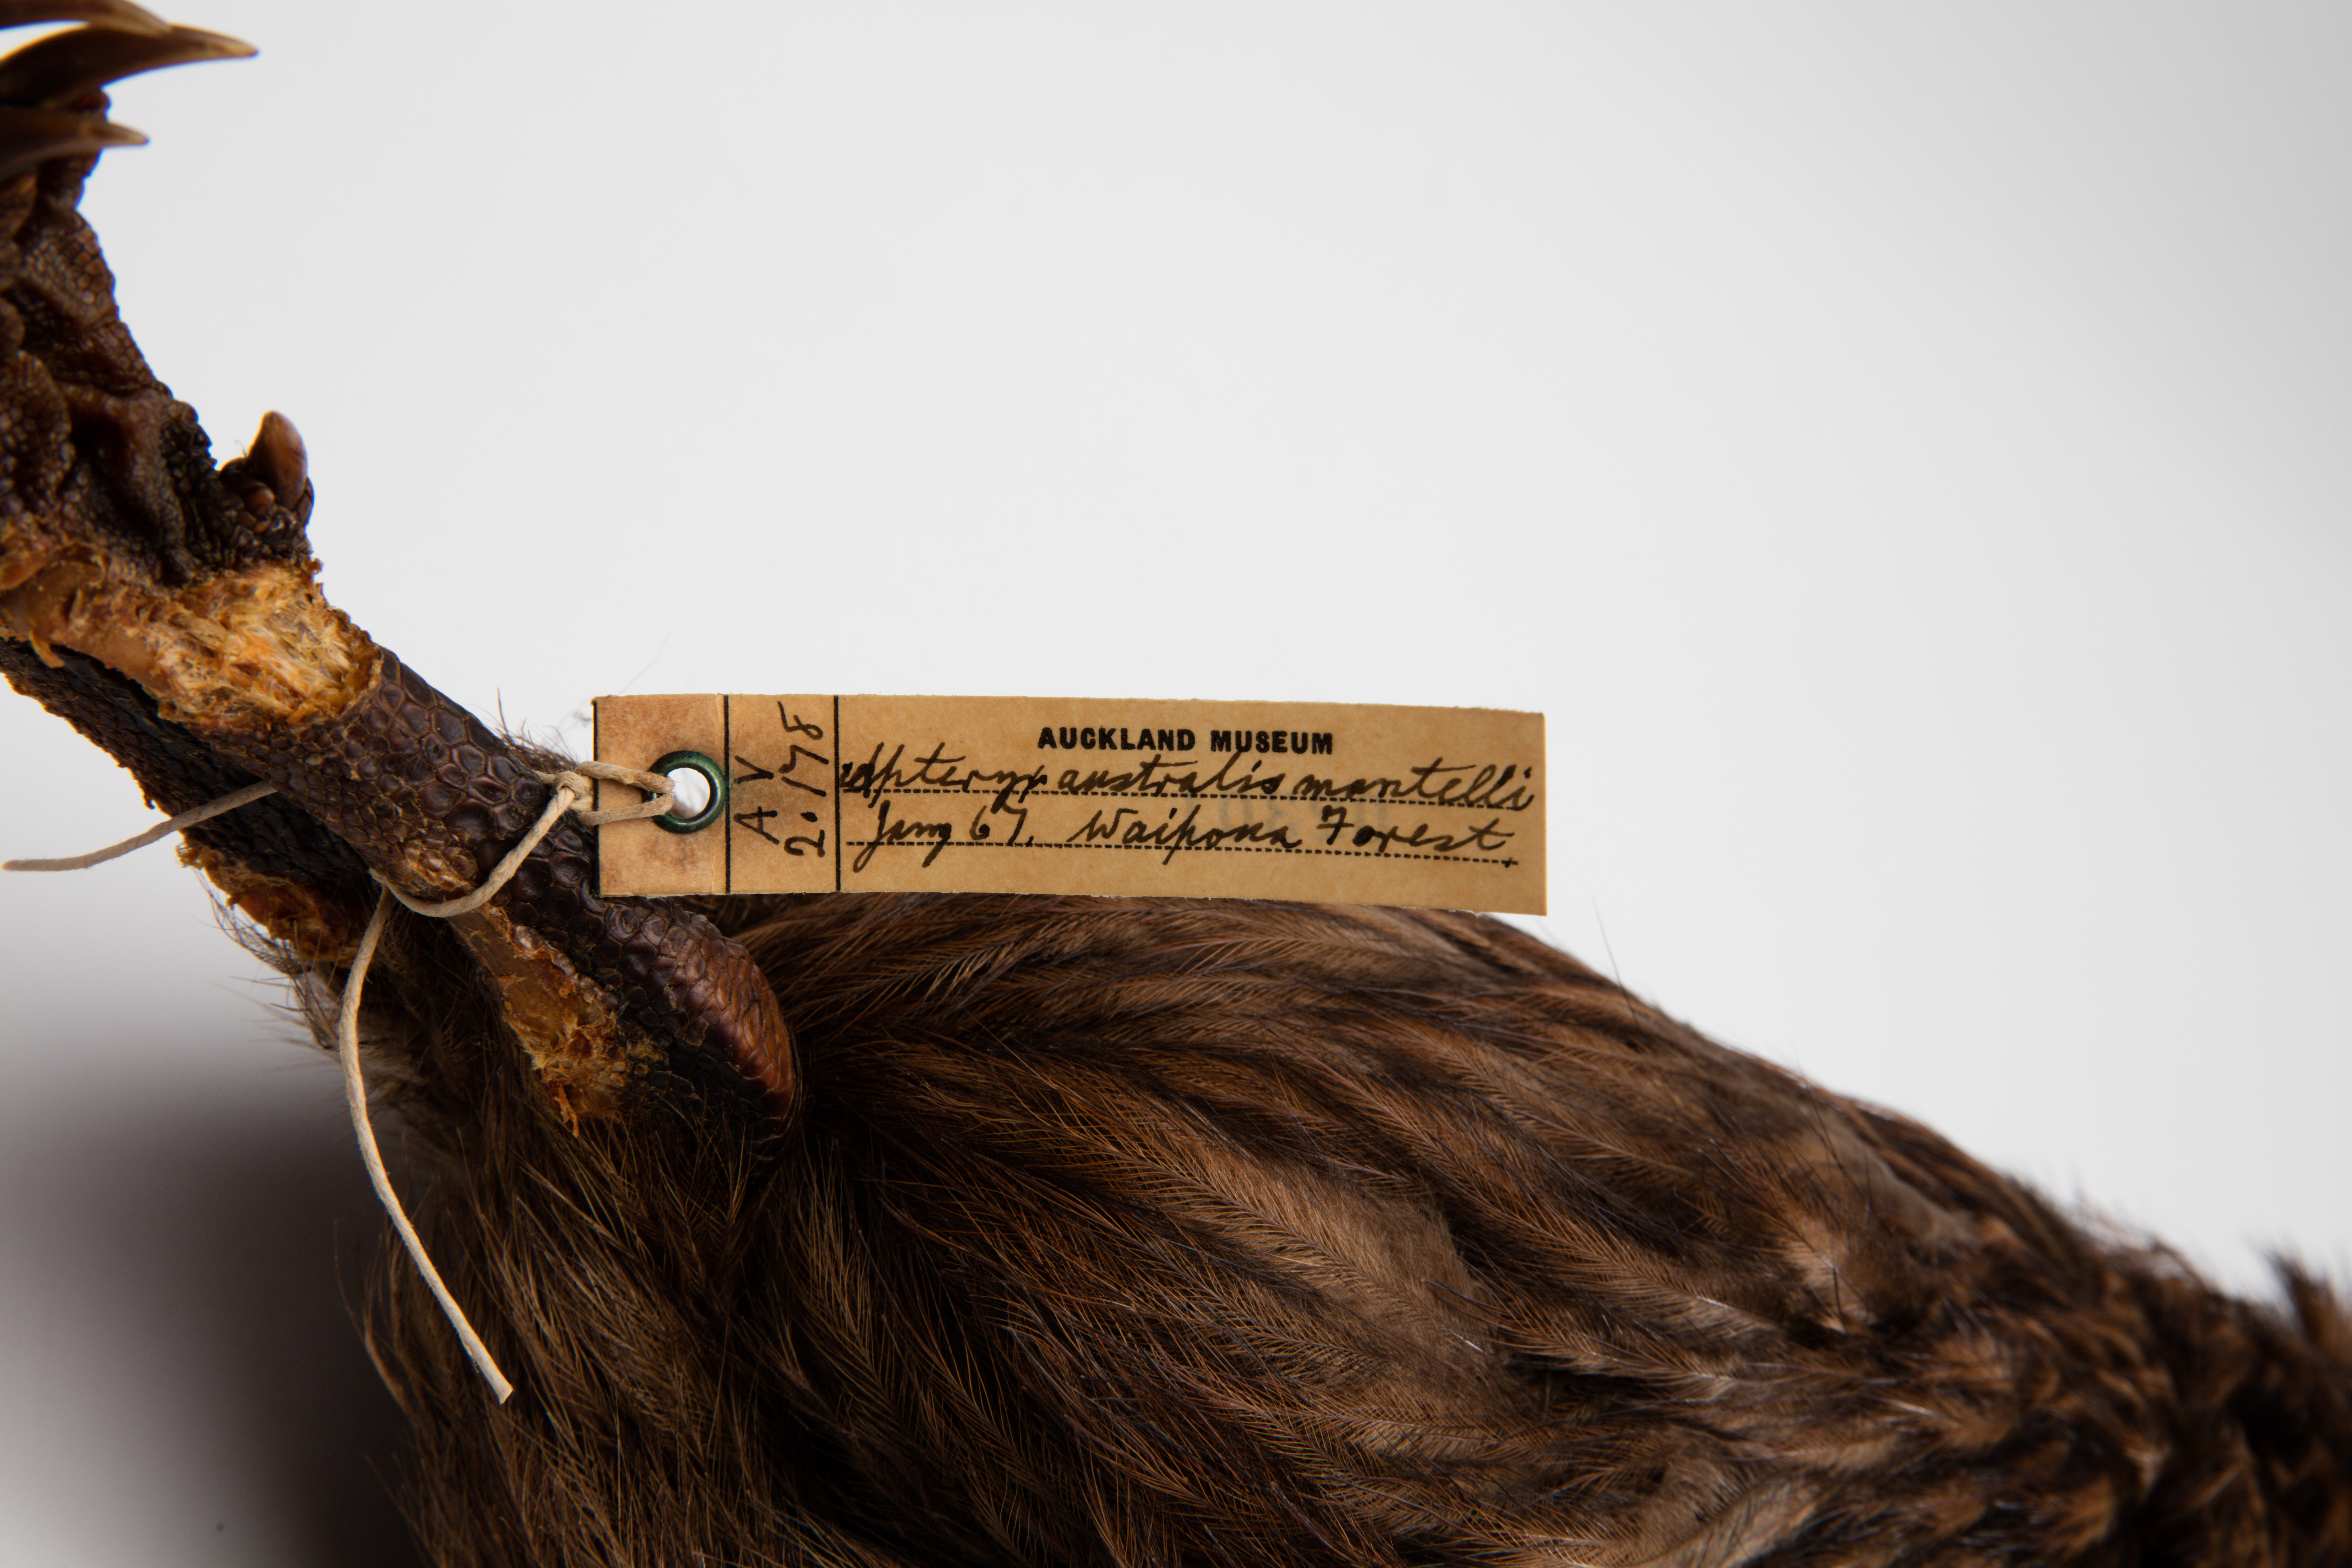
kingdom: Animalia
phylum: Chordata
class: Aves
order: Apterygiformes
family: Apterygidae
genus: Apteryx
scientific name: Apteryx mantelli
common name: North island brown kiwi
